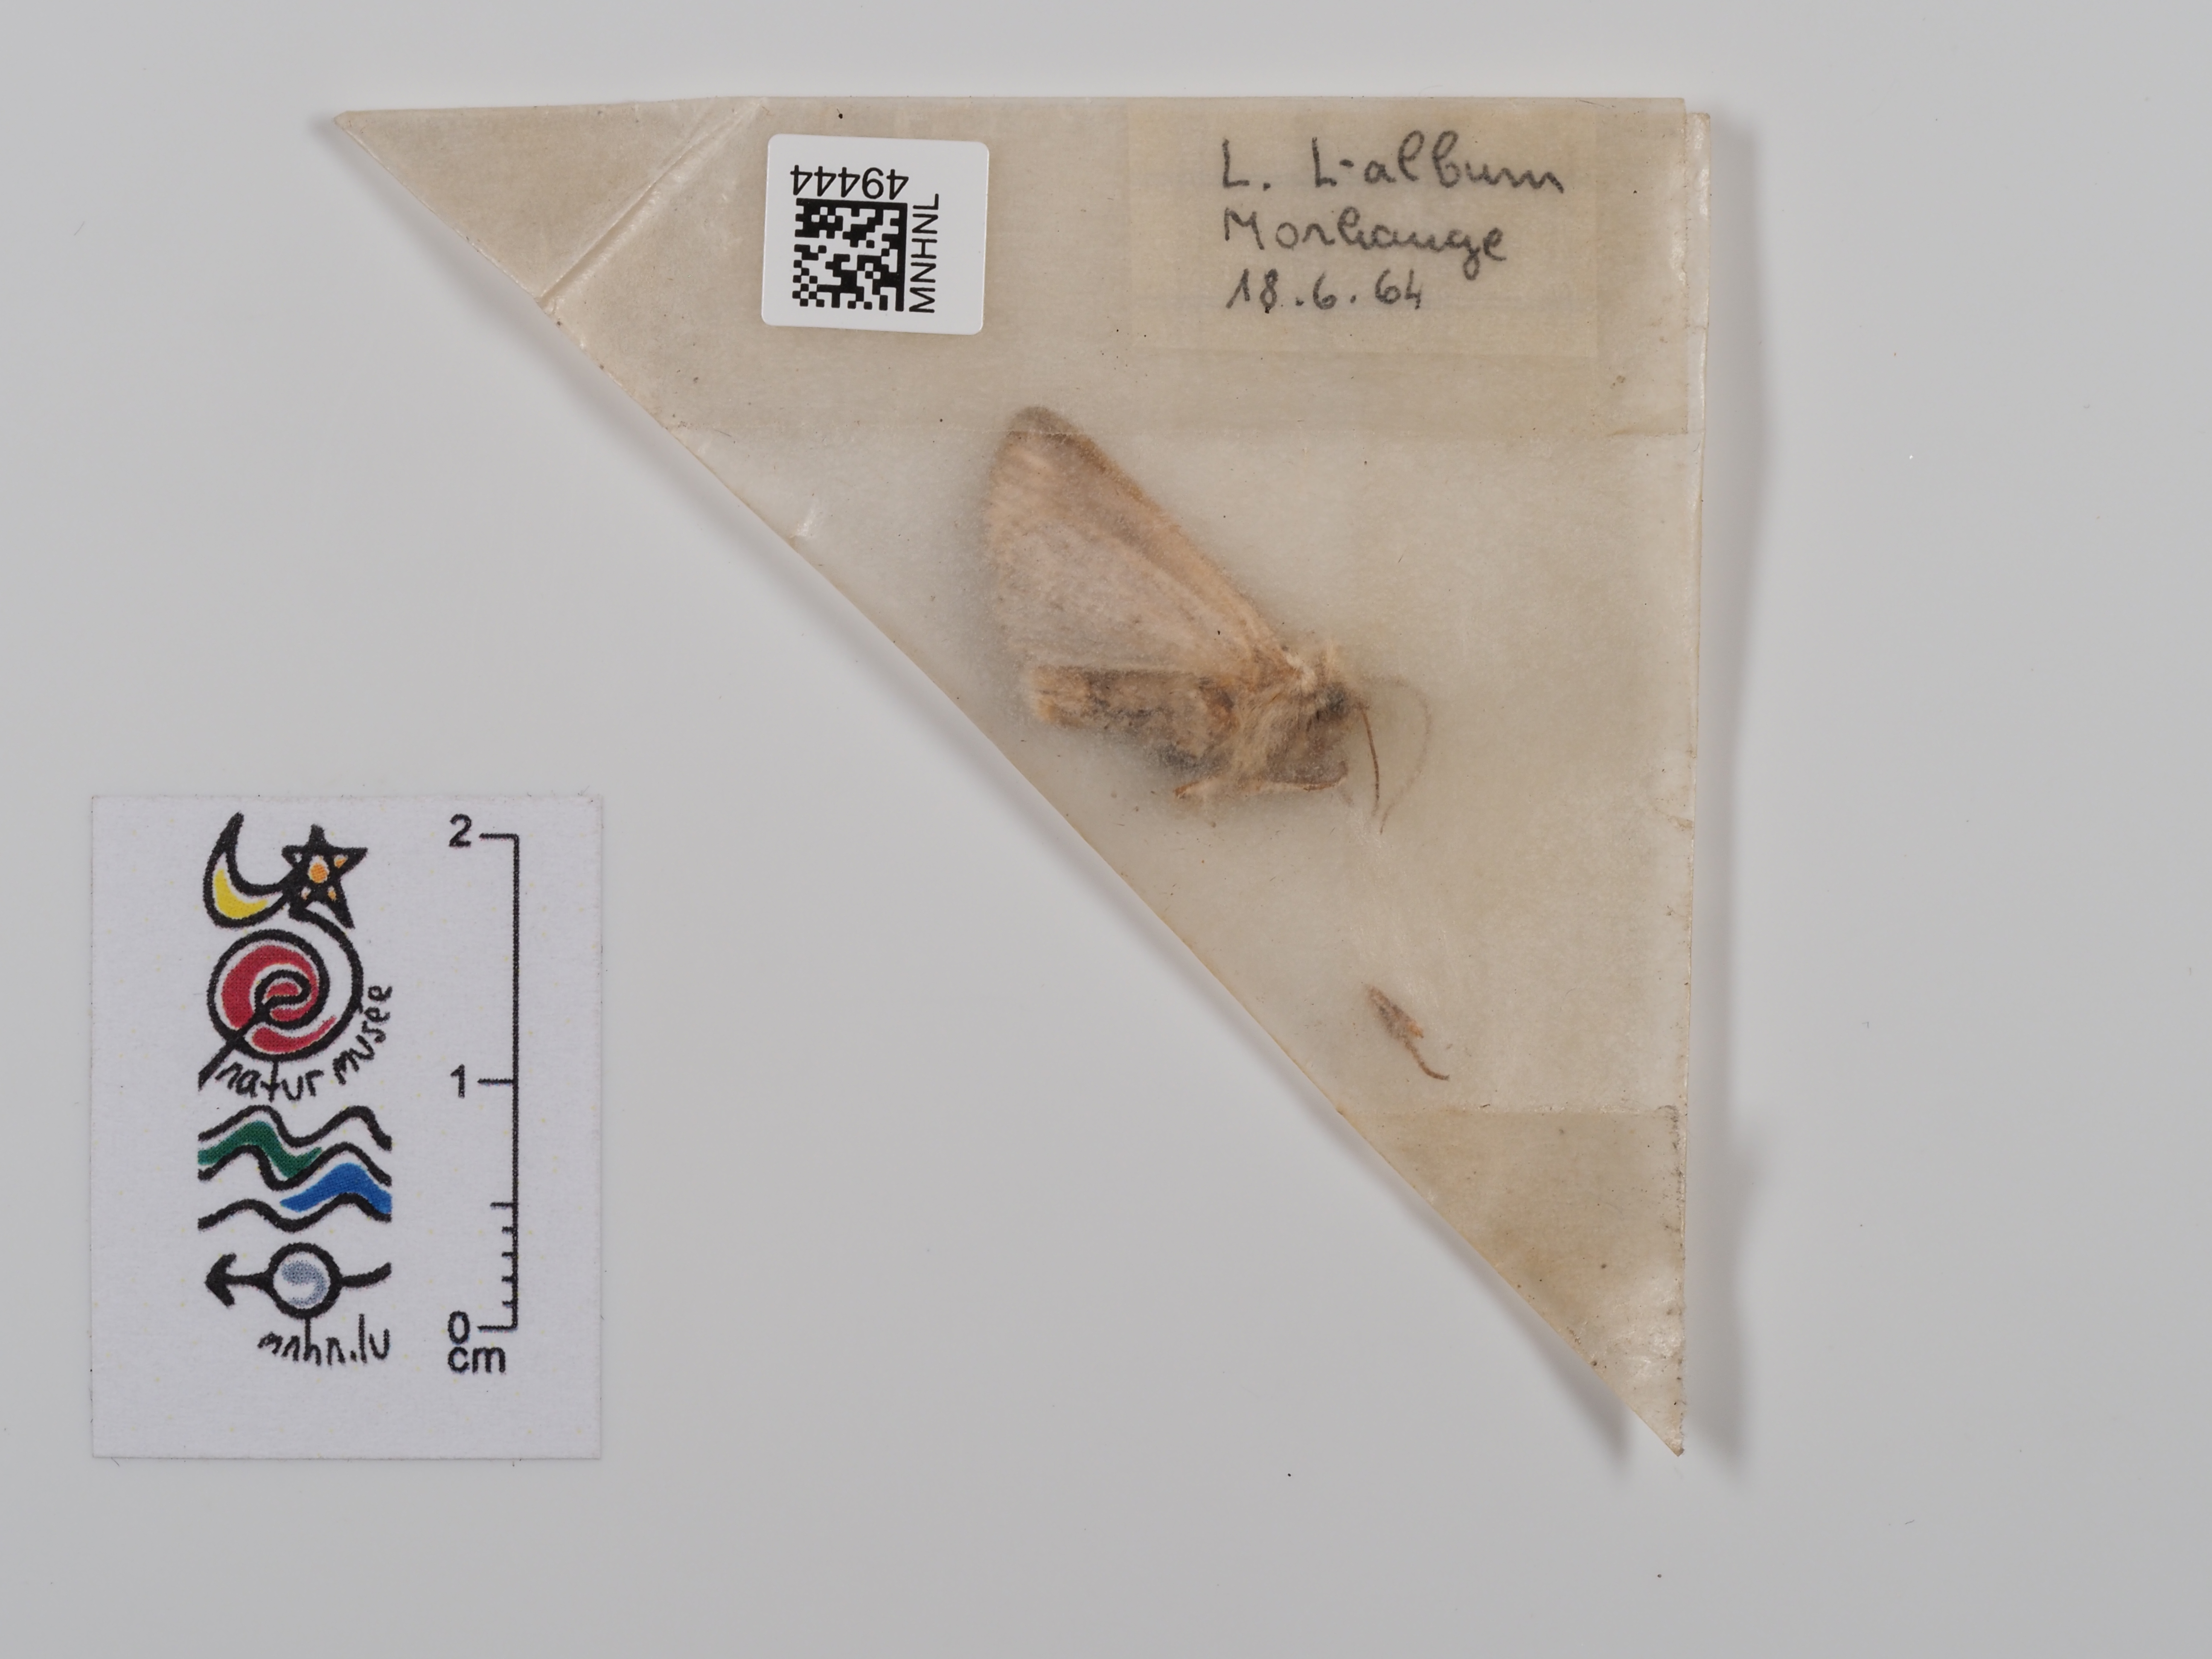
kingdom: Animalia
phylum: Arthropoda
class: Insecta
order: Lepidoptera
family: Noctuidae
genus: Mythimna
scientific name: Mythimna l-album
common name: L-album wainscot
